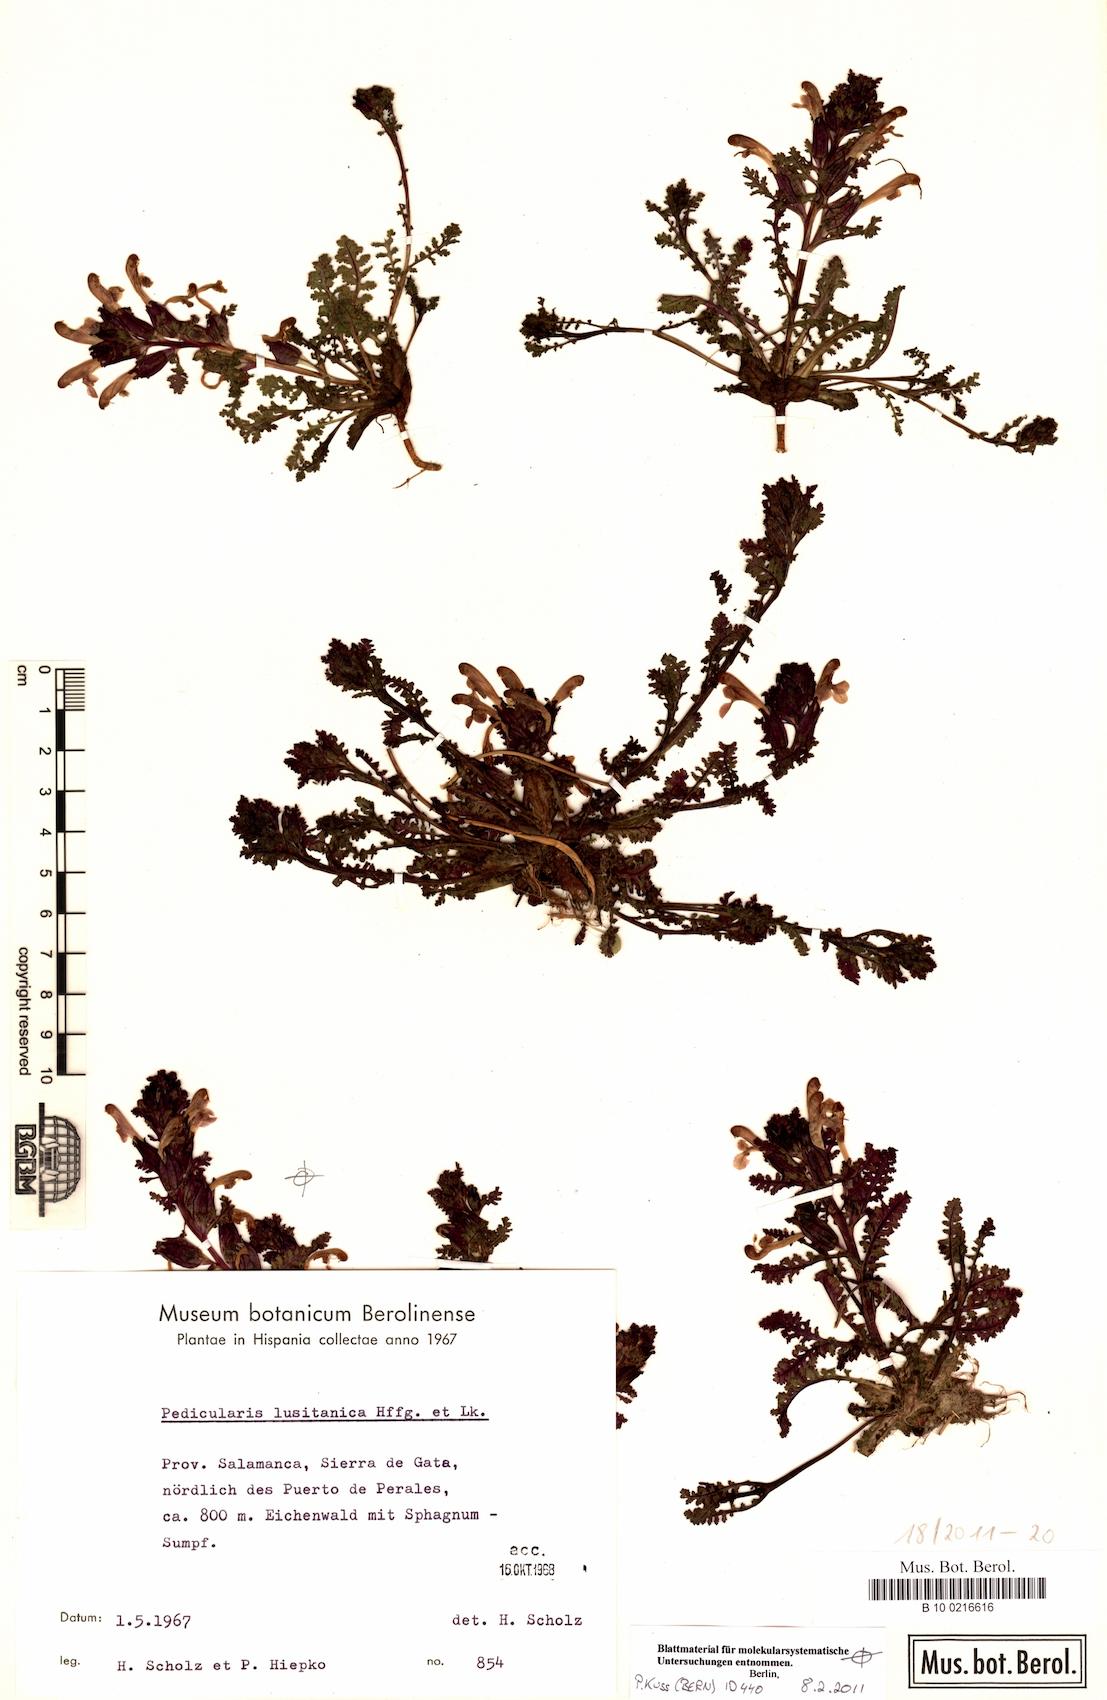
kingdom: Plantae
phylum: Tracheophyta
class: Magnoliopsida
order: Lamiales
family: Orobanchaceae
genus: Pedicularis
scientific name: Pedicularis sylvatica
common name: Lousewort
